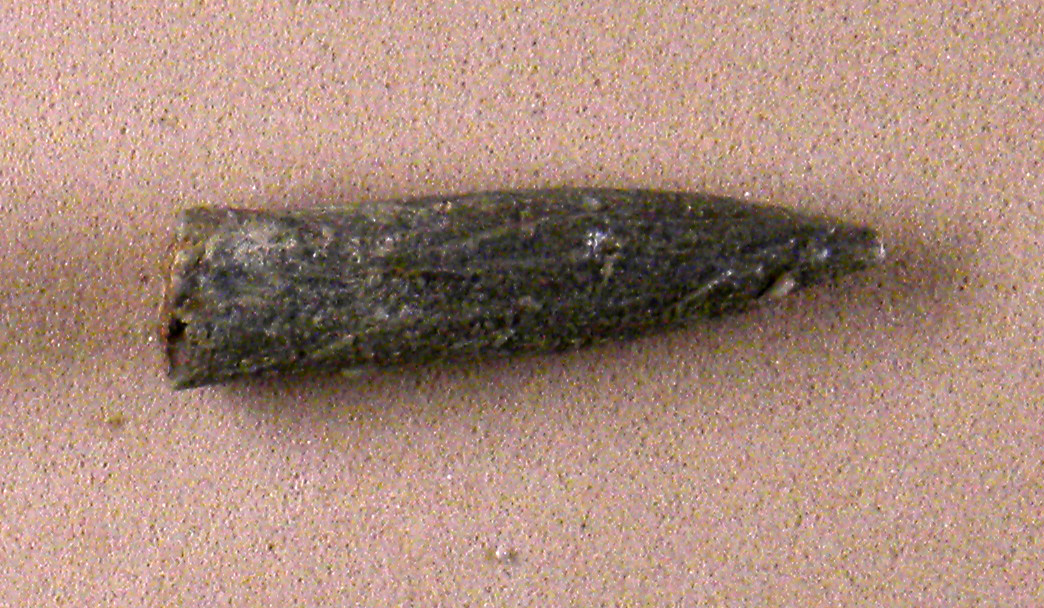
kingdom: Animalia
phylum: Mollusca
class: Cephalopoda
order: Belemnitida
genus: Rhabdobelus
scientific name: Rhabdobelus donovani
